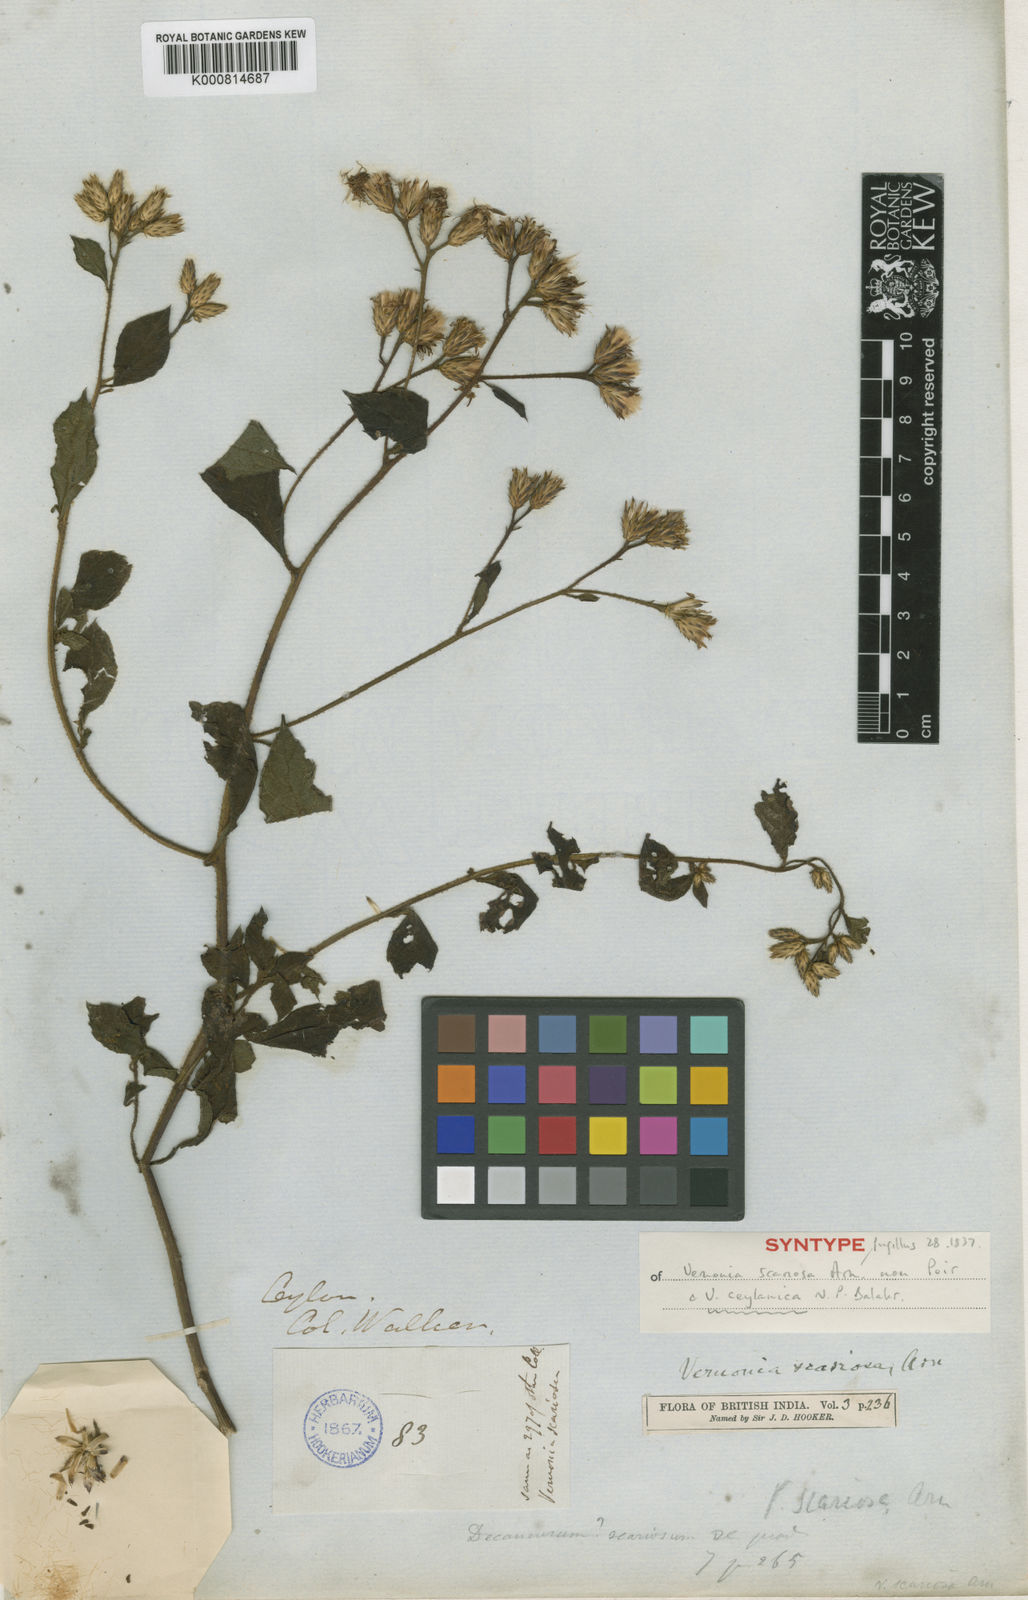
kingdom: Plantae
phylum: Tracheophyta
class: Magnoliopsida
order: Asterales
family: Asteraceae
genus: Acilepis
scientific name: Acilepis scariosa
